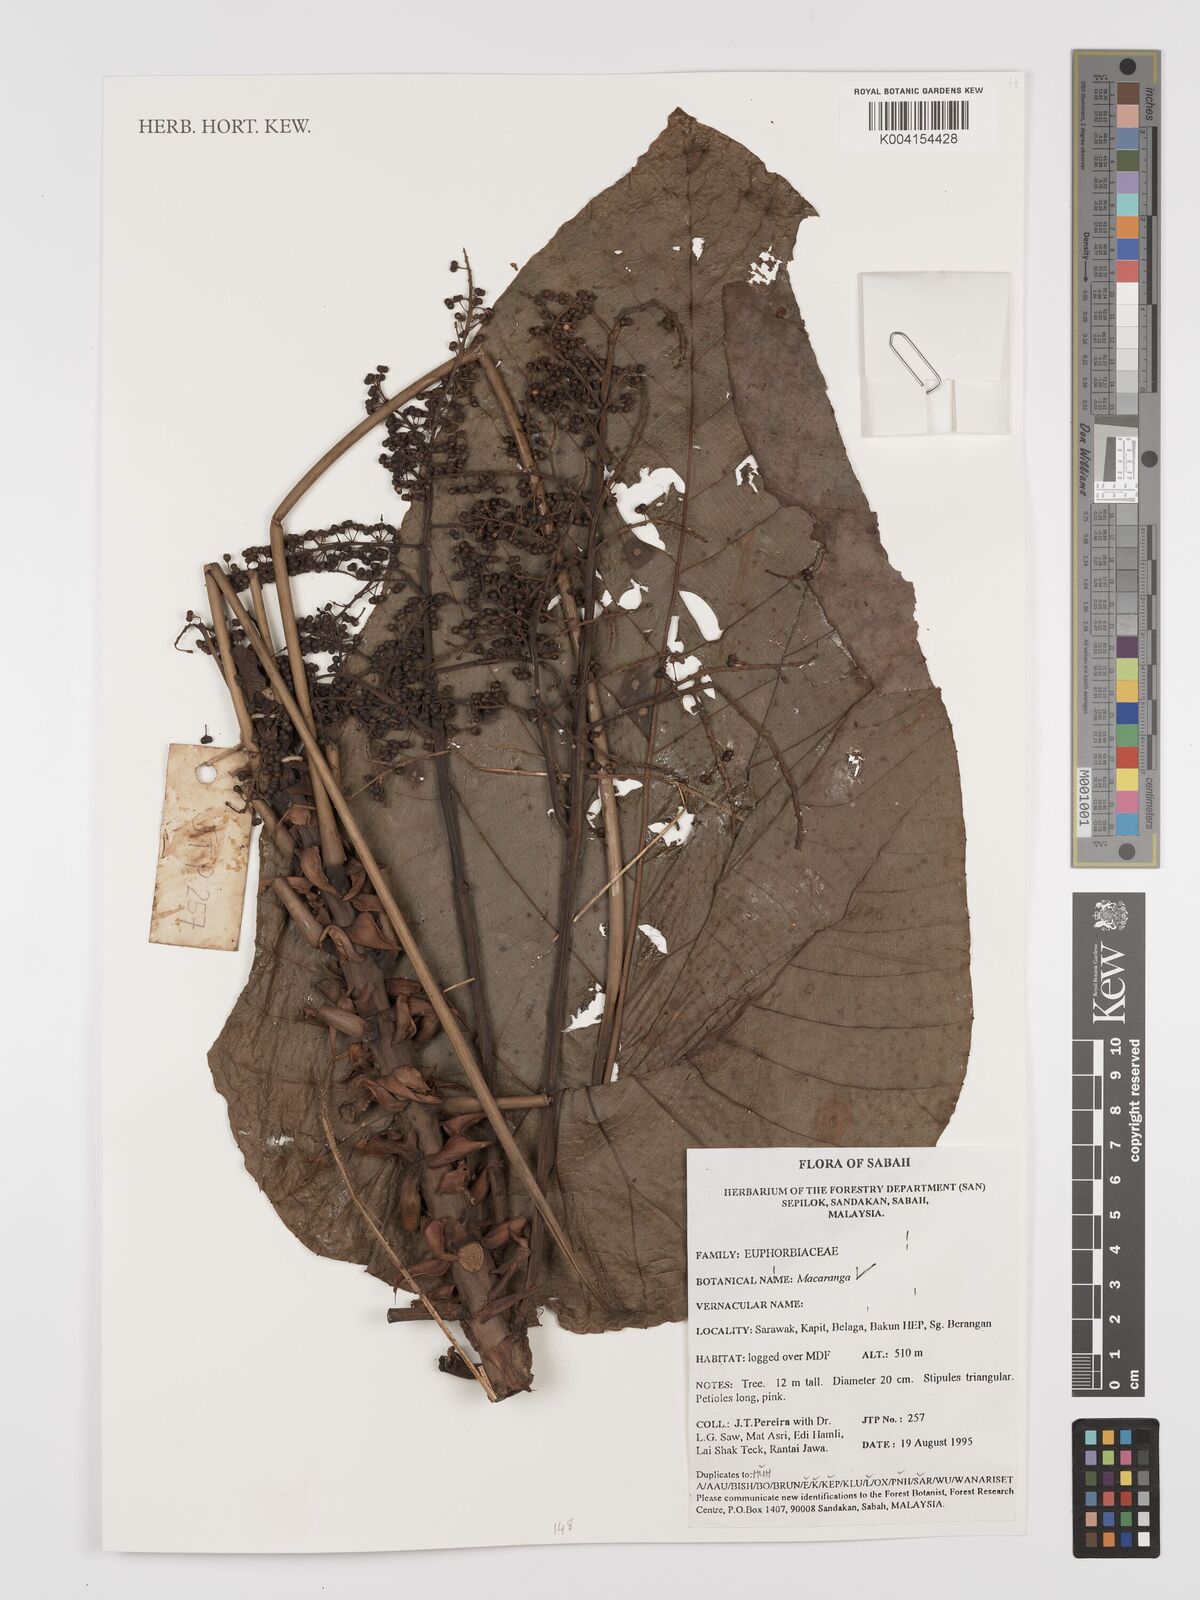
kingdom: Plantae
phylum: Tracheophyta
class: Magnoliopsida
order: Malpighiales
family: Euphorbiaceae
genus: Macaranga
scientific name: Macaranga
